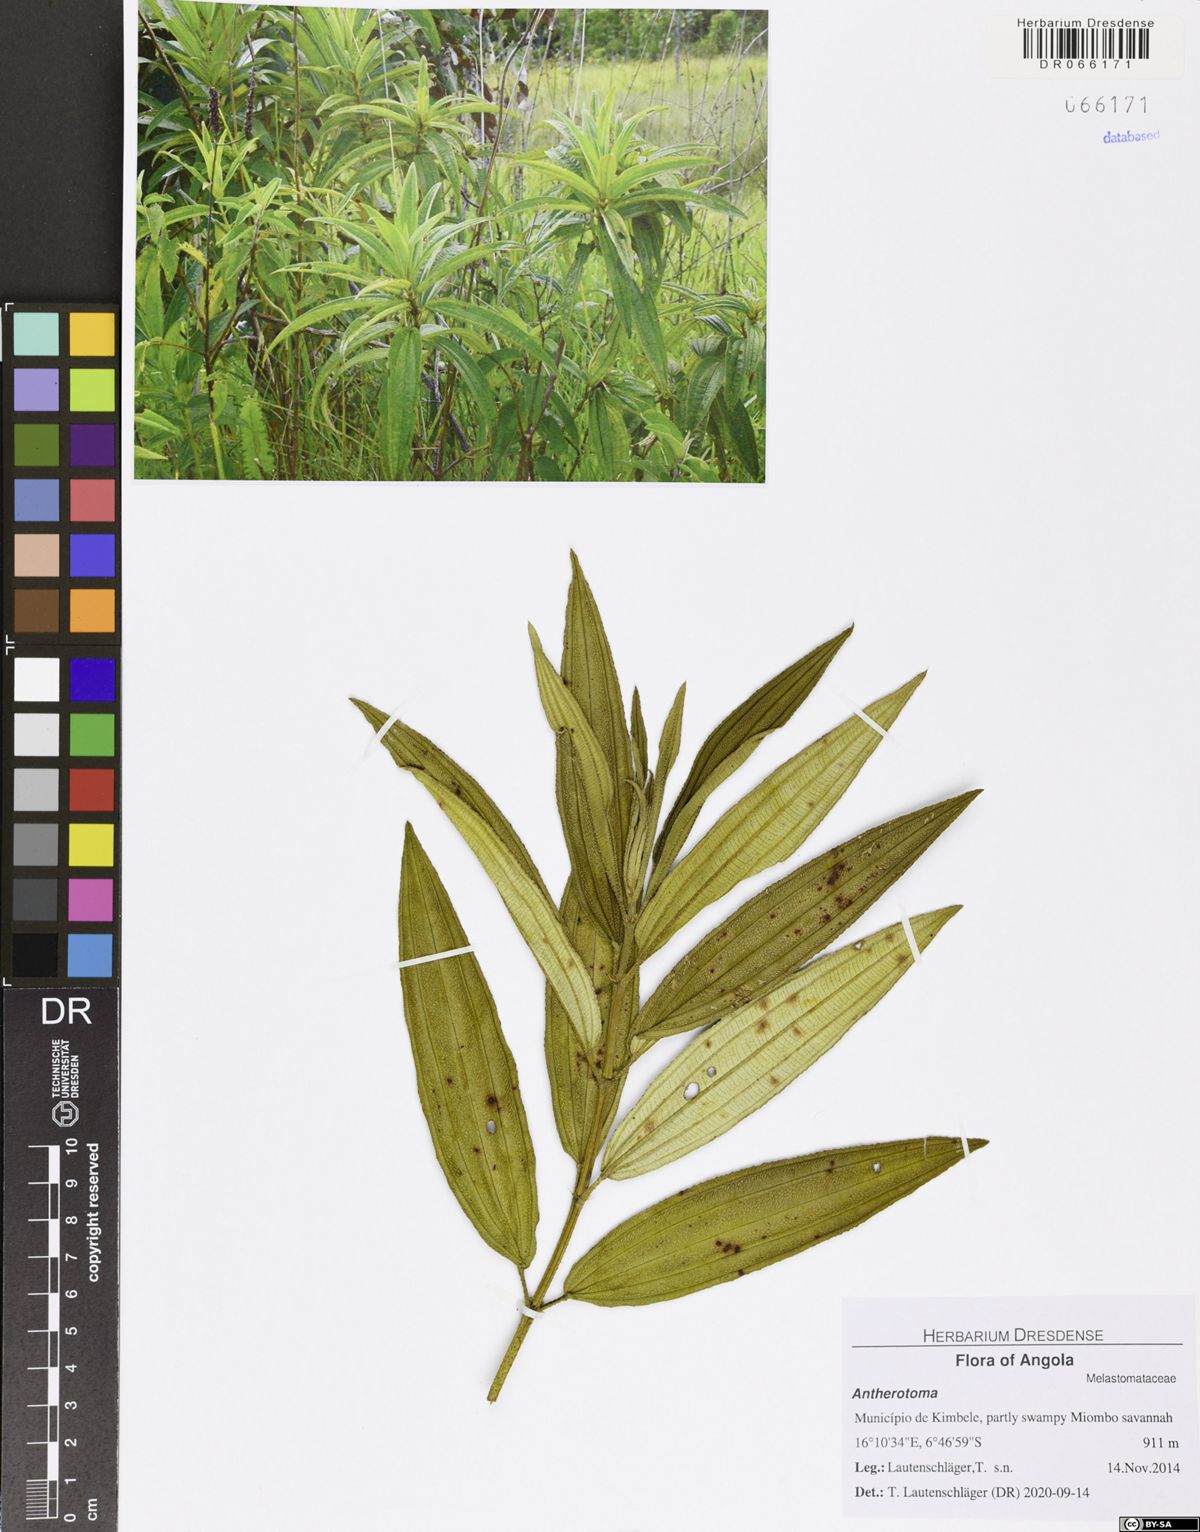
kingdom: Plantae
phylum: Tracheophyta
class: Magnoliopsida
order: Myrtales
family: Melastomataceae
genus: Rosettea
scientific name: Rosettea thollonii
